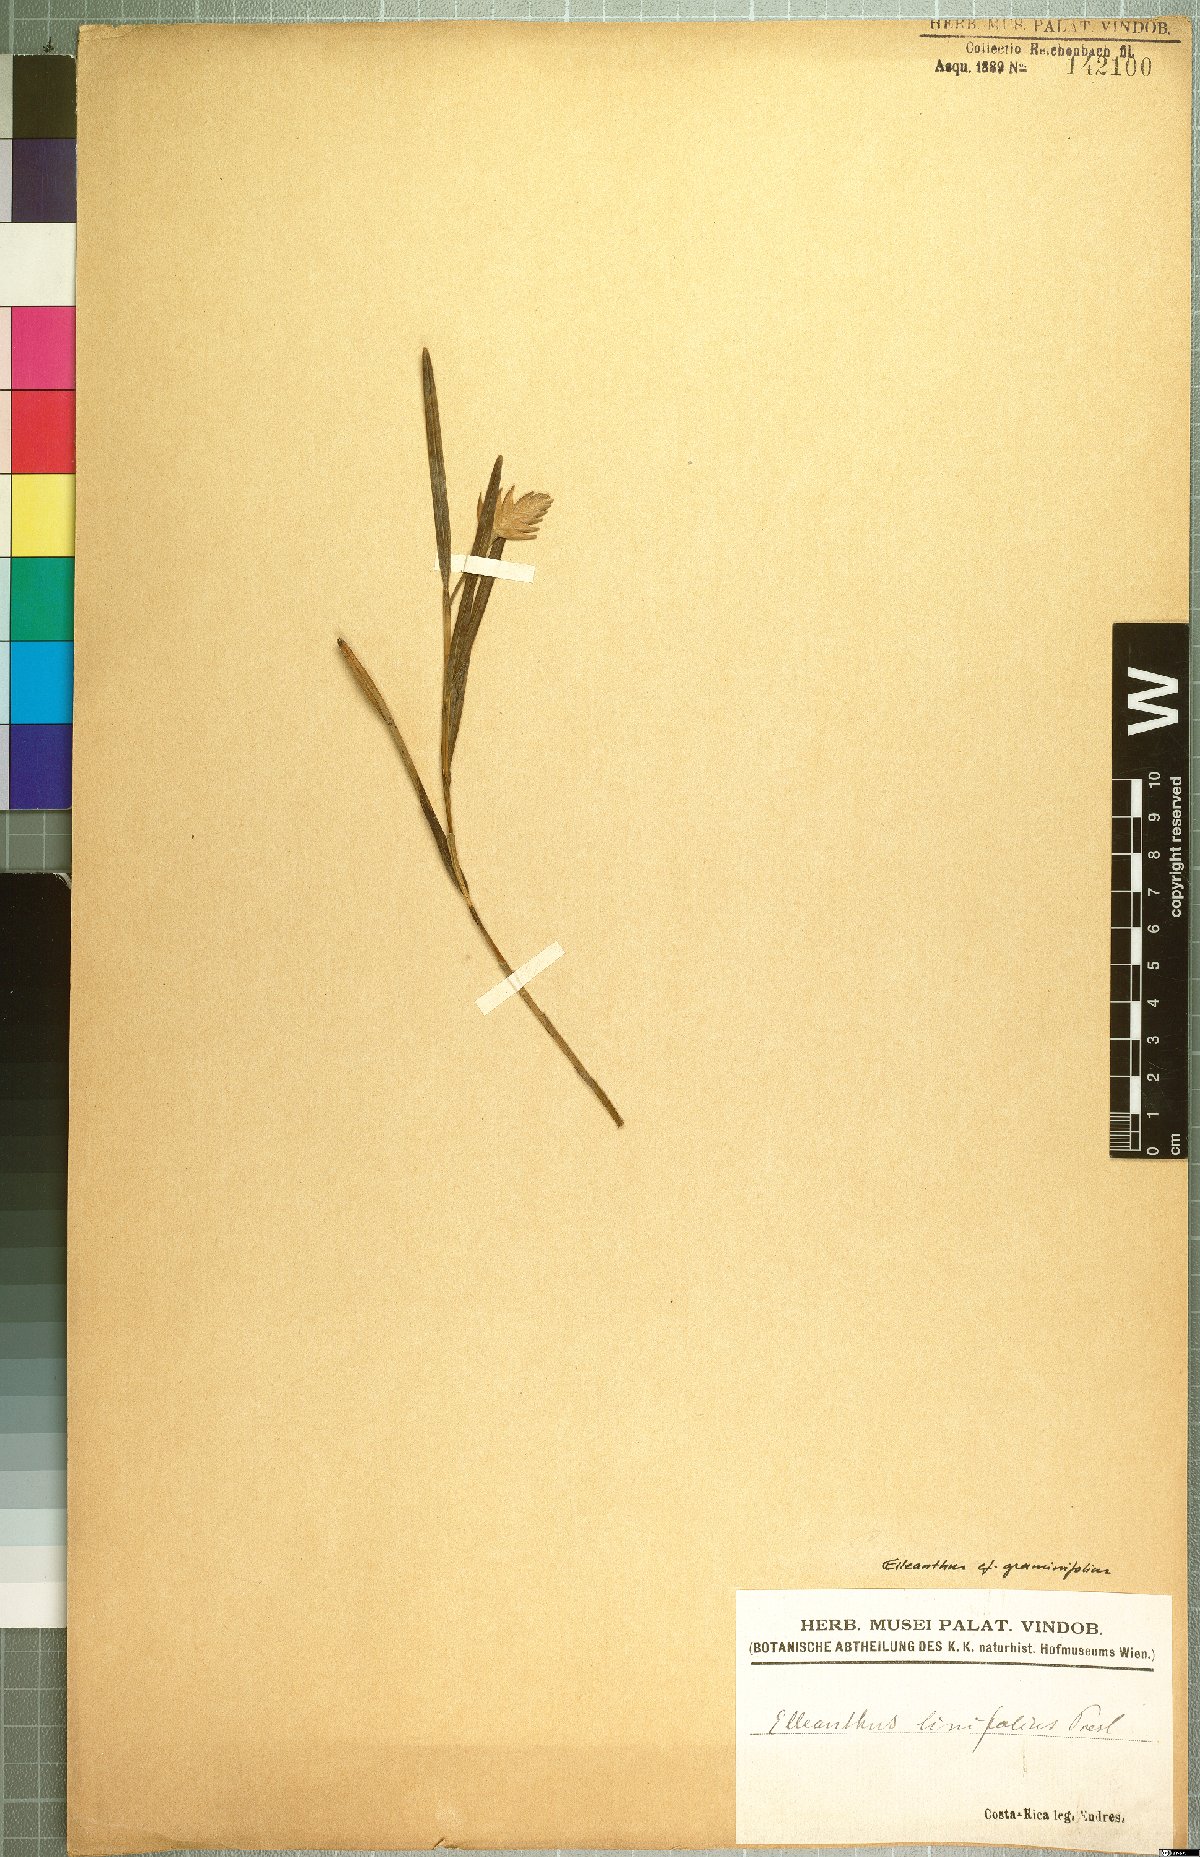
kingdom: Plantae
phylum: Tracheophyta
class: Liliopsida
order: Asparagales
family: Orchidaceae
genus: Elleanthus
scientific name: Elleanthus graminifolius
